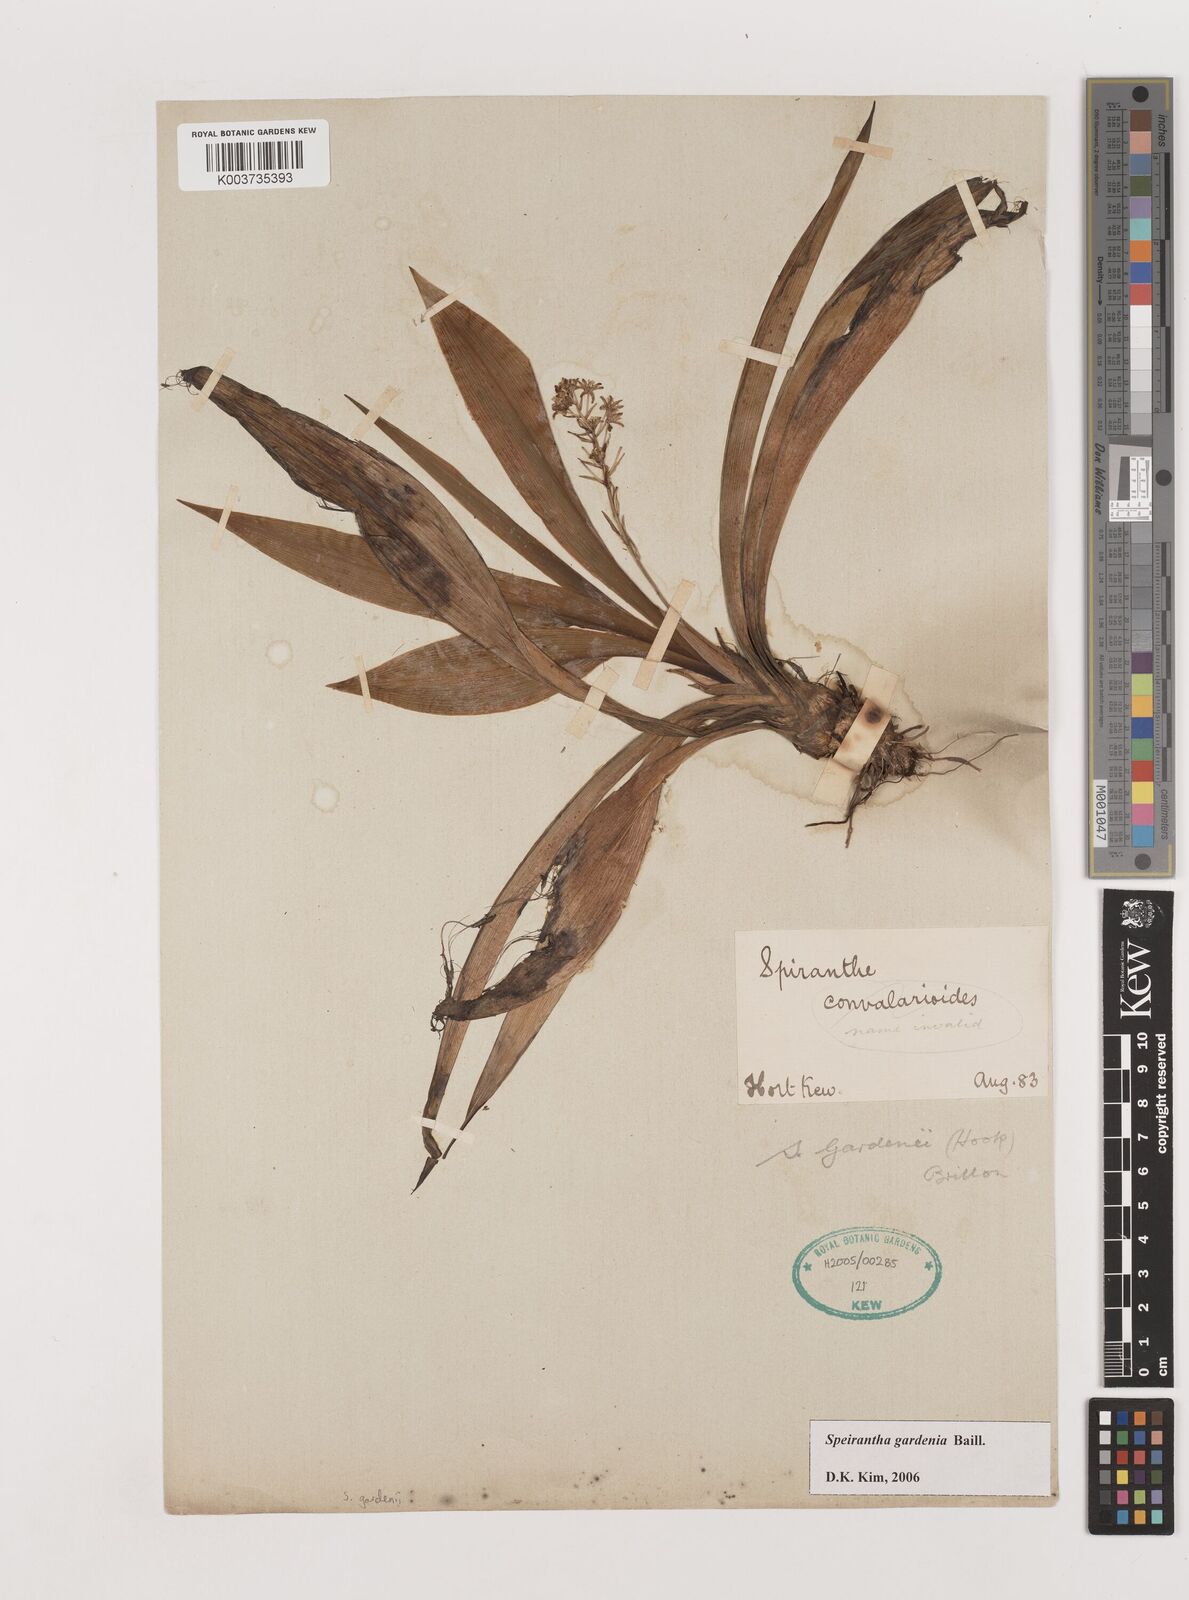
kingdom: Plantae
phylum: Tracheophyta
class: Liliopsida
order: Asparagales
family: Asparagaceae
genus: Speirantha
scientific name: Speirantha gardenii
